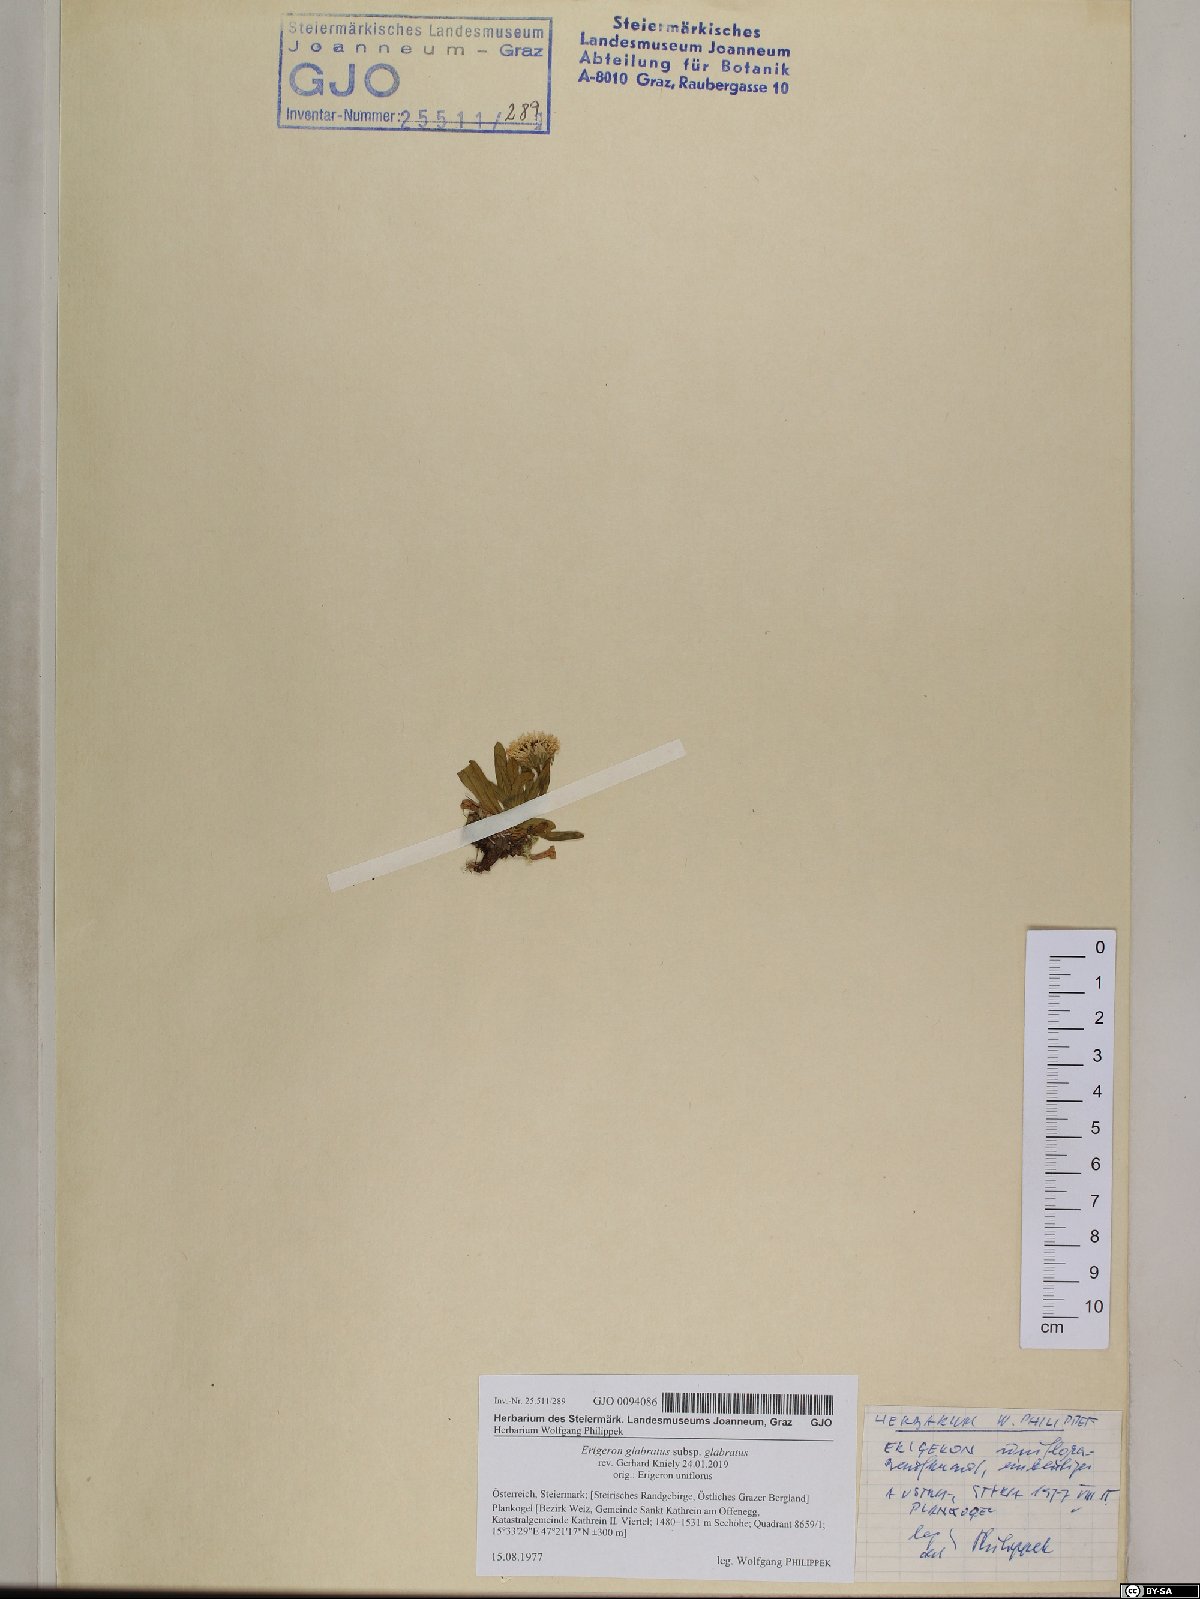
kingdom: Plantae
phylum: Tracheophyta
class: Magnoliopsida
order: Asterales
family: Asteraceae
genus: Erigeron
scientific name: Erigeron glabratus
